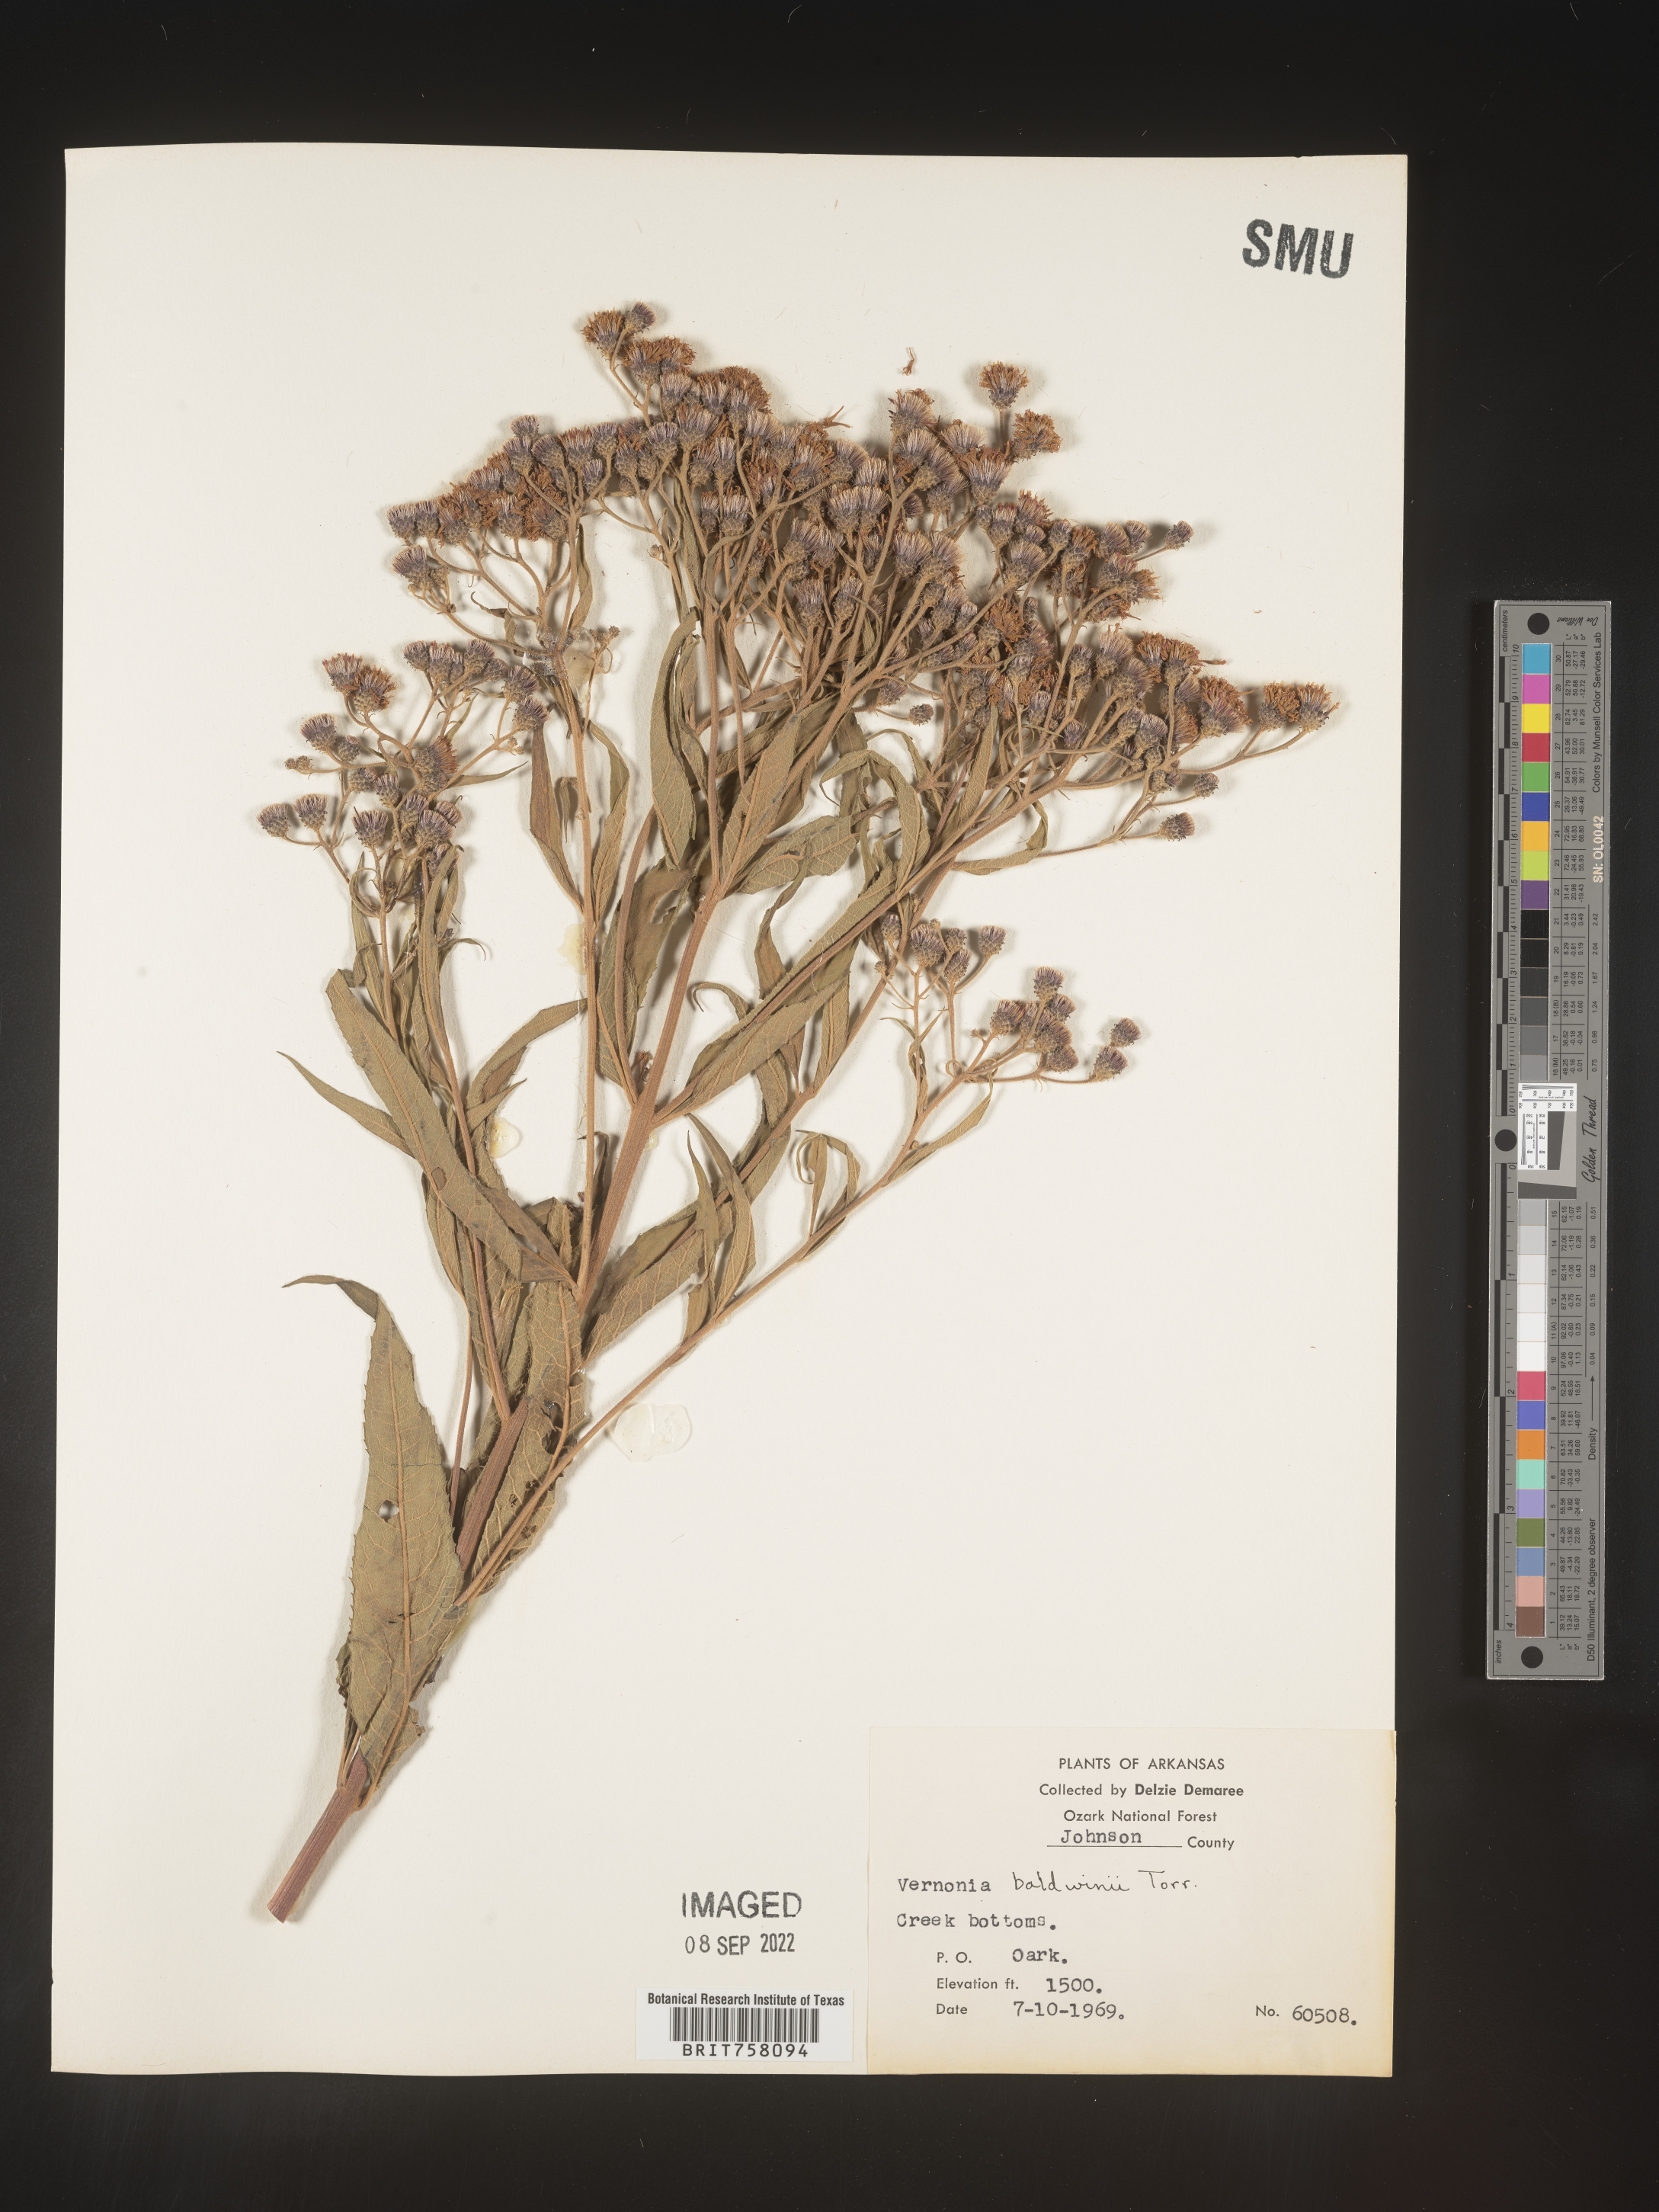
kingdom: Plantae
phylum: Tracheophyta
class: Magnoliopsida
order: Asterales
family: Asteraceae
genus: Vernonia
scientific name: Vernonia baldwinii
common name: Western ironweed
